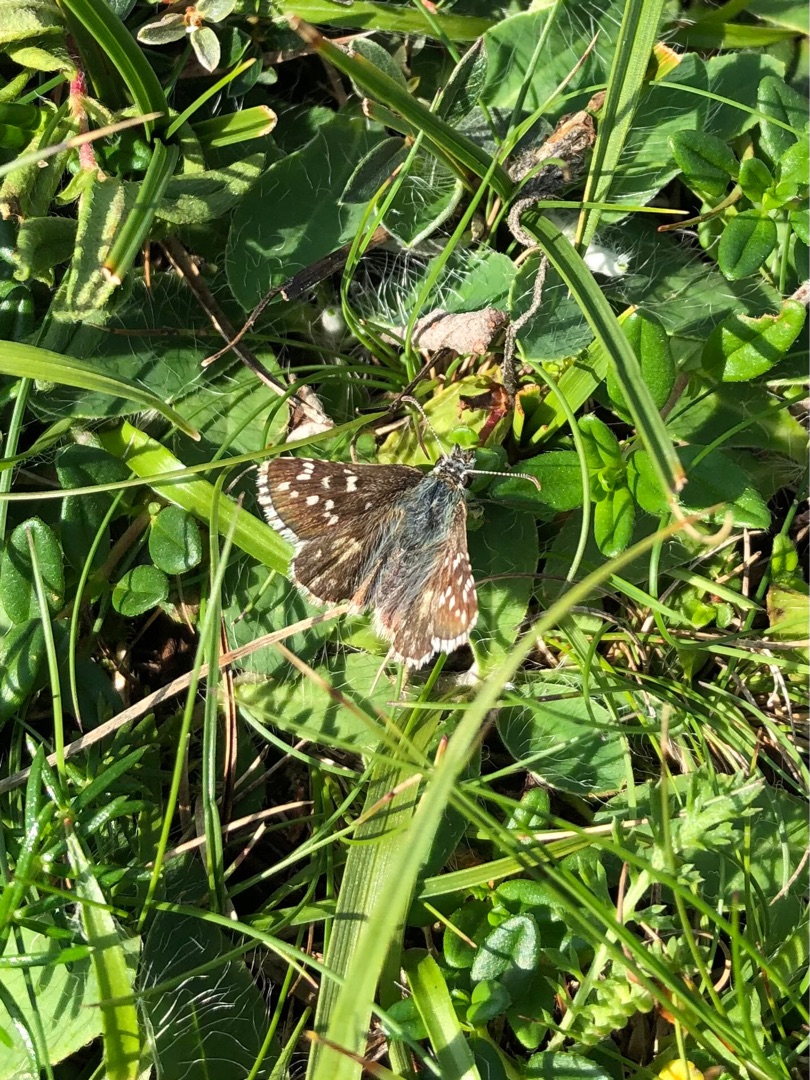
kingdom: Animalia
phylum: Arthropoda
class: Insecta
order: Lepidoptera
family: Hesperiidae
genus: Pyrgus
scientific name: Pyrgus armoricanus
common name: Fransk bredpande
